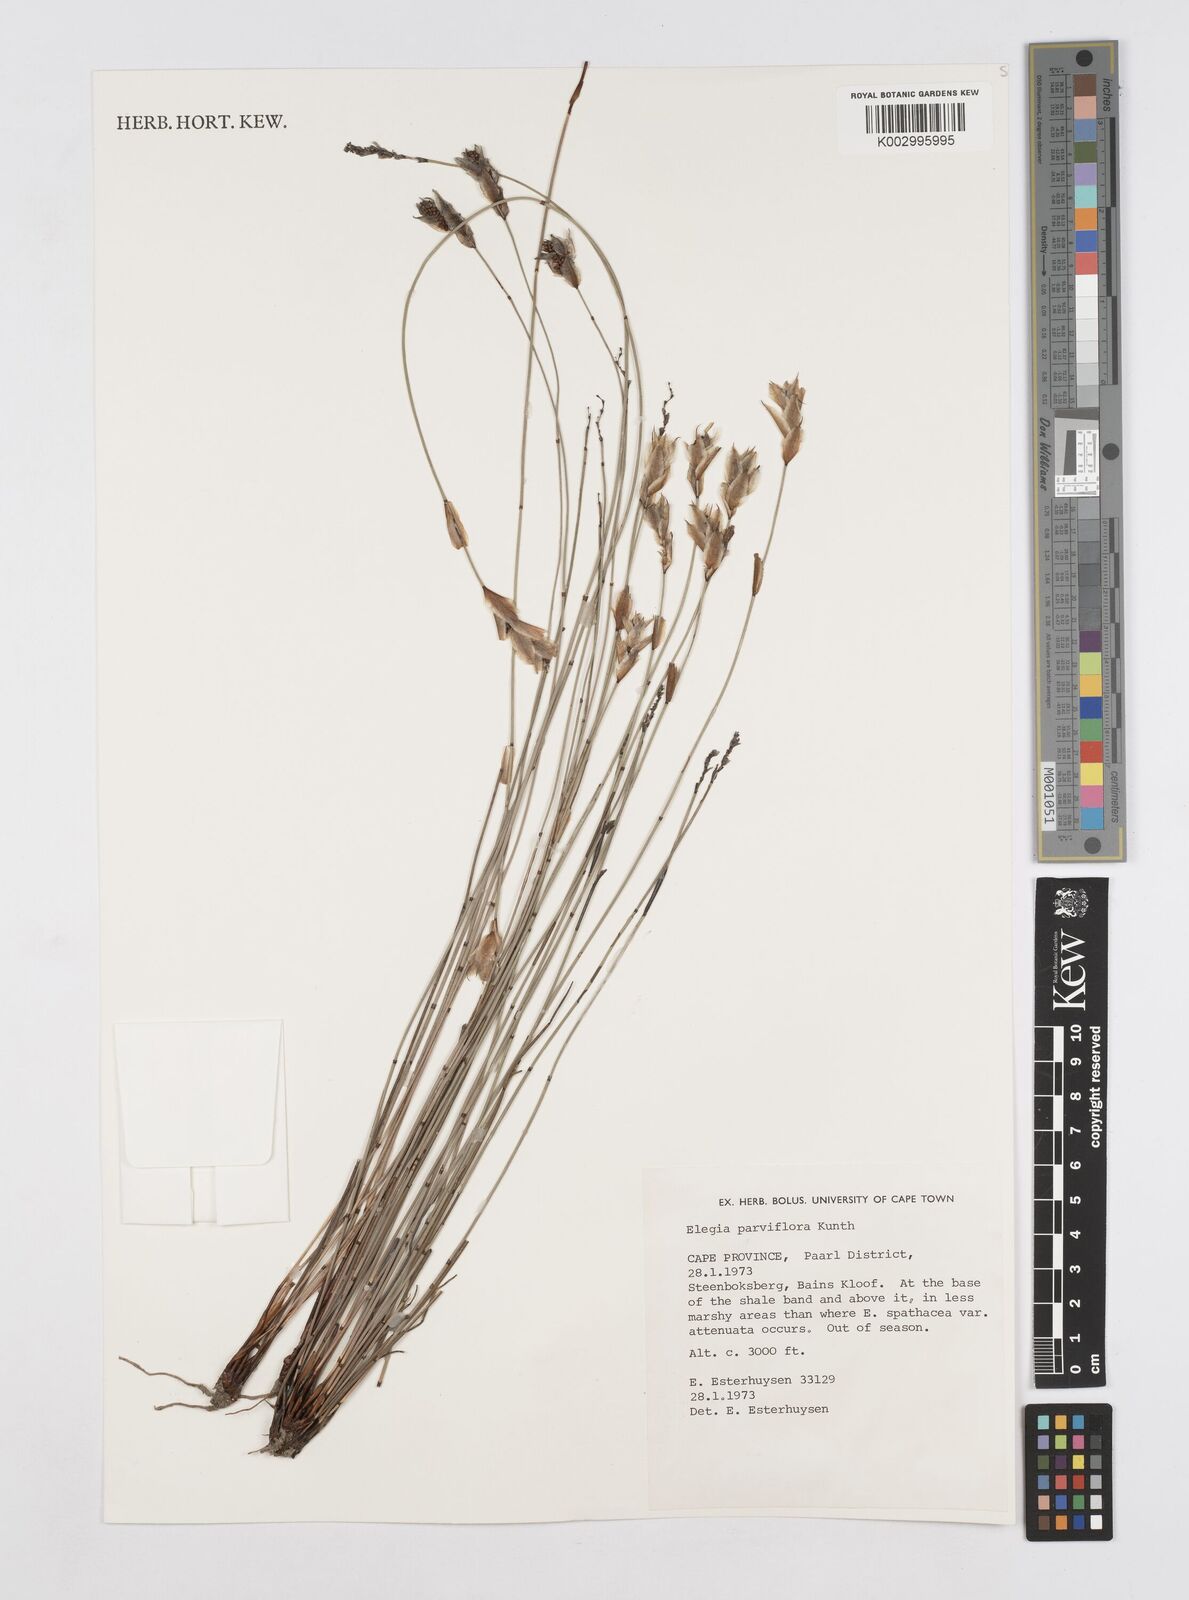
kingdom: Plantae
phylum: Tracheophyta
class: Liliopsida
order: Poales
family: Restionaceae
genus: Cannomois
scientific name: Cannomois parviflora
